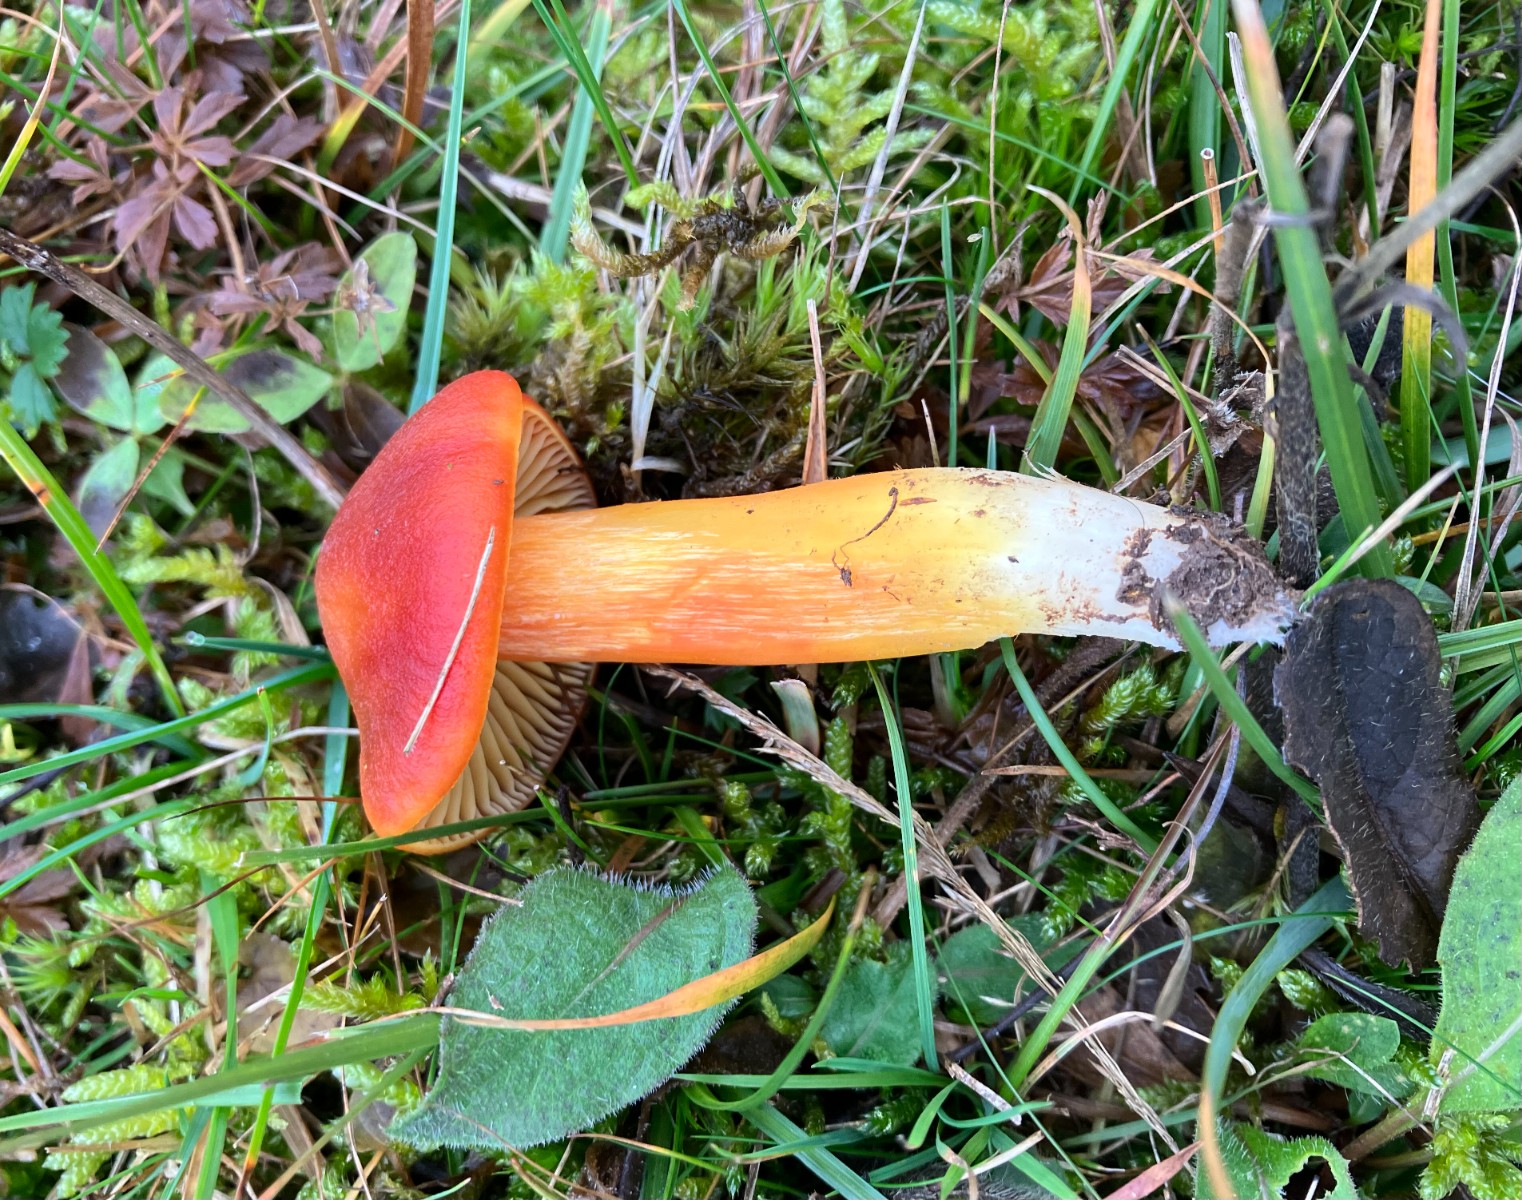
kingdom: Fungi
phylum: Basidiomycota
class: Agaricomycetes
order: Agaricales
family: Hygrophoraceae
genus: Hygrocybe
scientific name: Hygrocybe punicea
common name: skarlagen-vokshat
